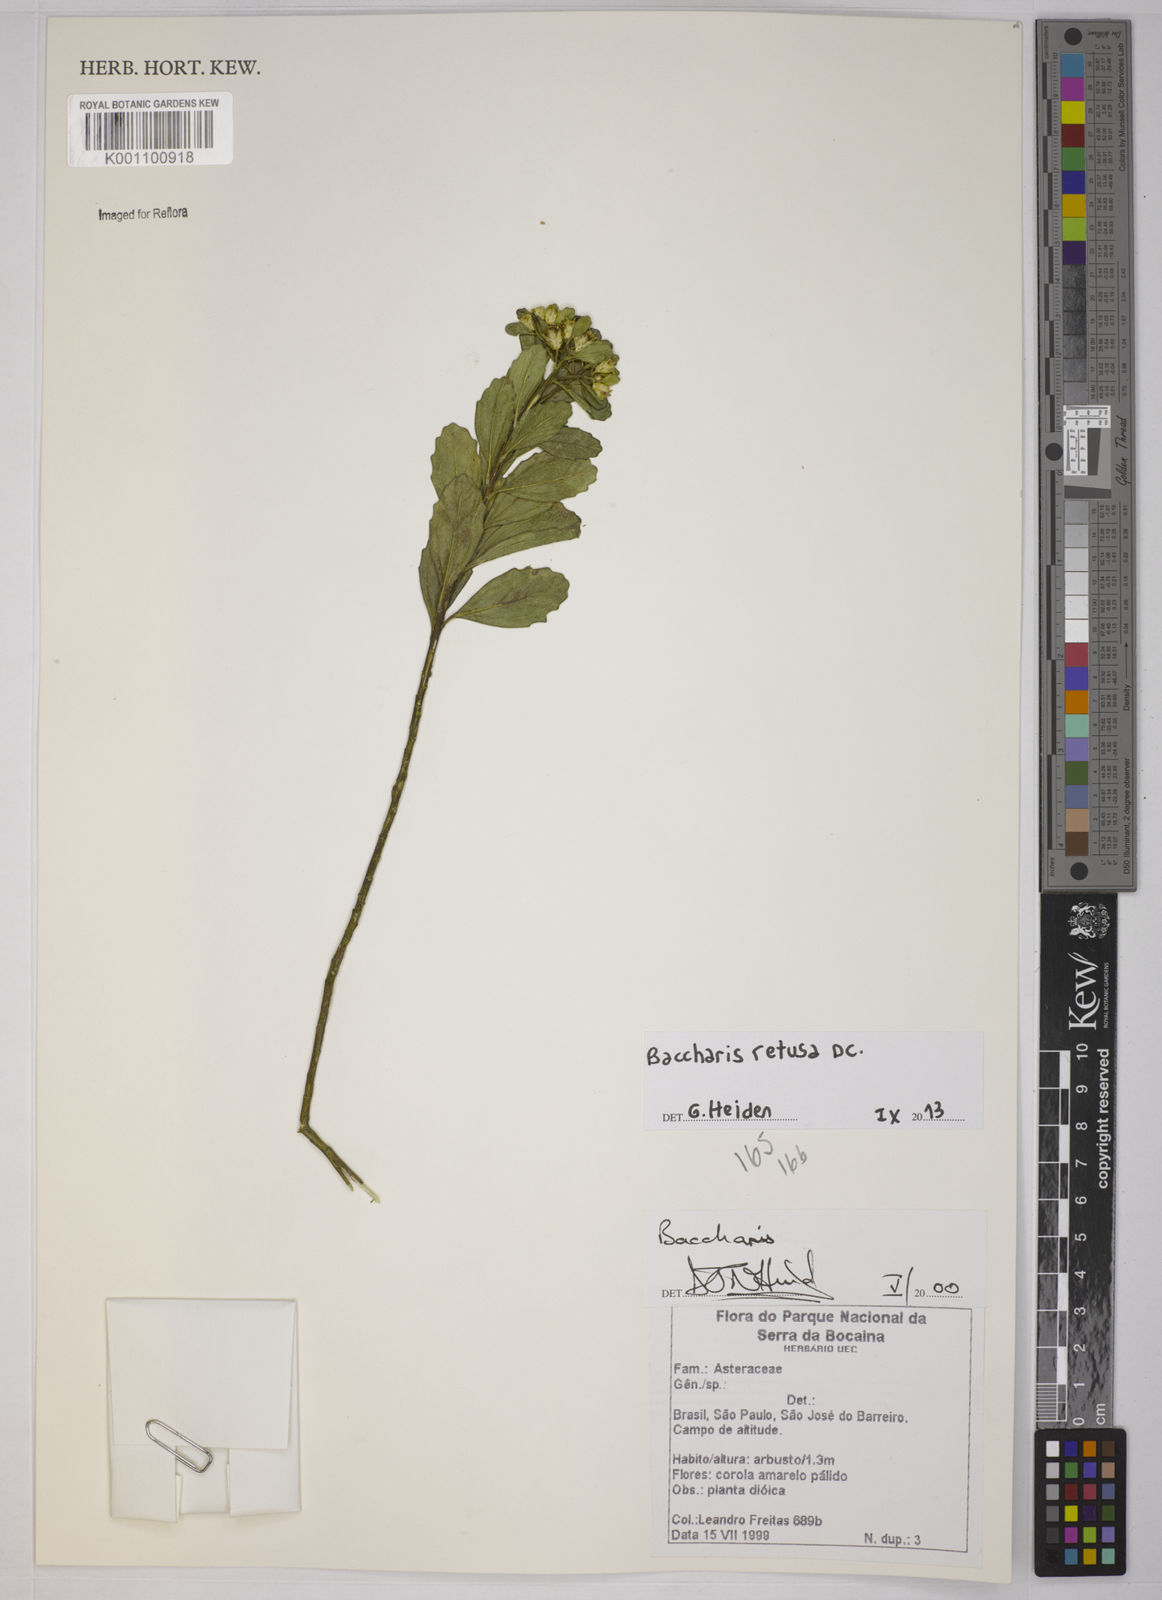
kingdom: Plantae
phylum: Tracheophyta
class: Magnoliopsida
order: Asterales
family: Asteraceae
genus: Baccharis
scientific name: Baccharis retusa
